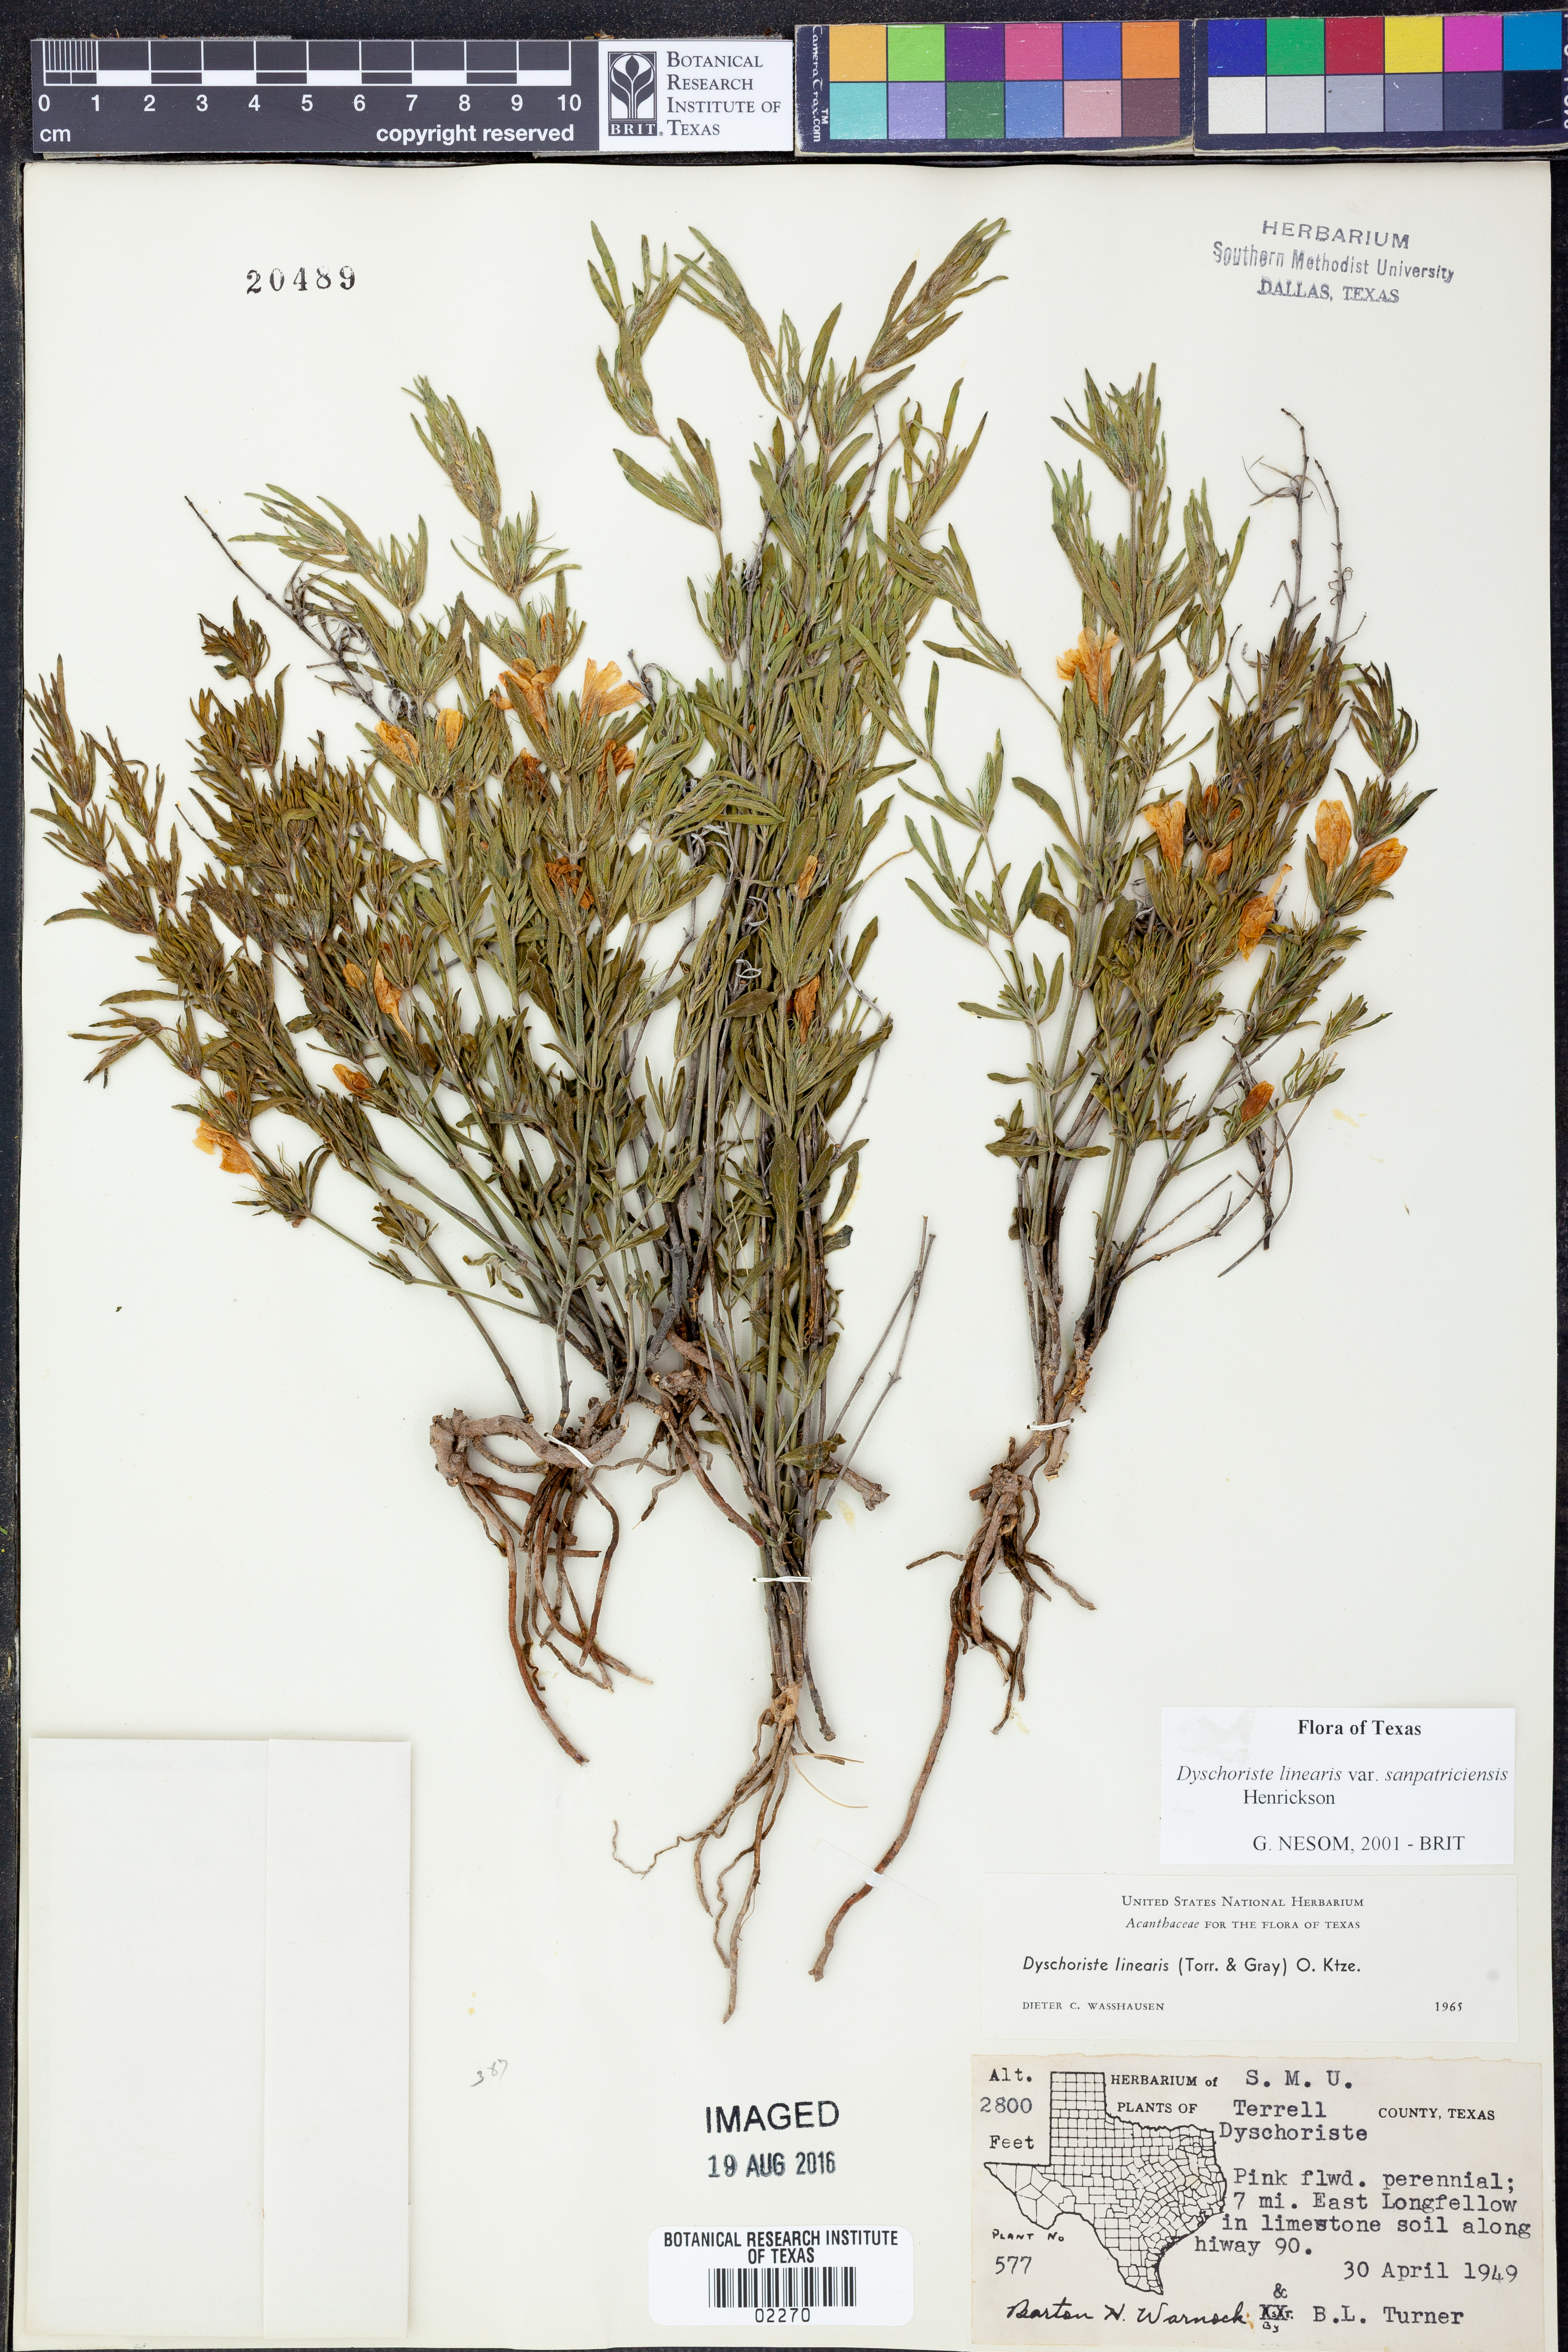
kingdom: Plantae
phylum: Tracheophyta
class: Magnoliopsida
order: Lamiales
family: Acanthaceae
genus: Dyschoriste
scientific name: Dyschoriste linearis
